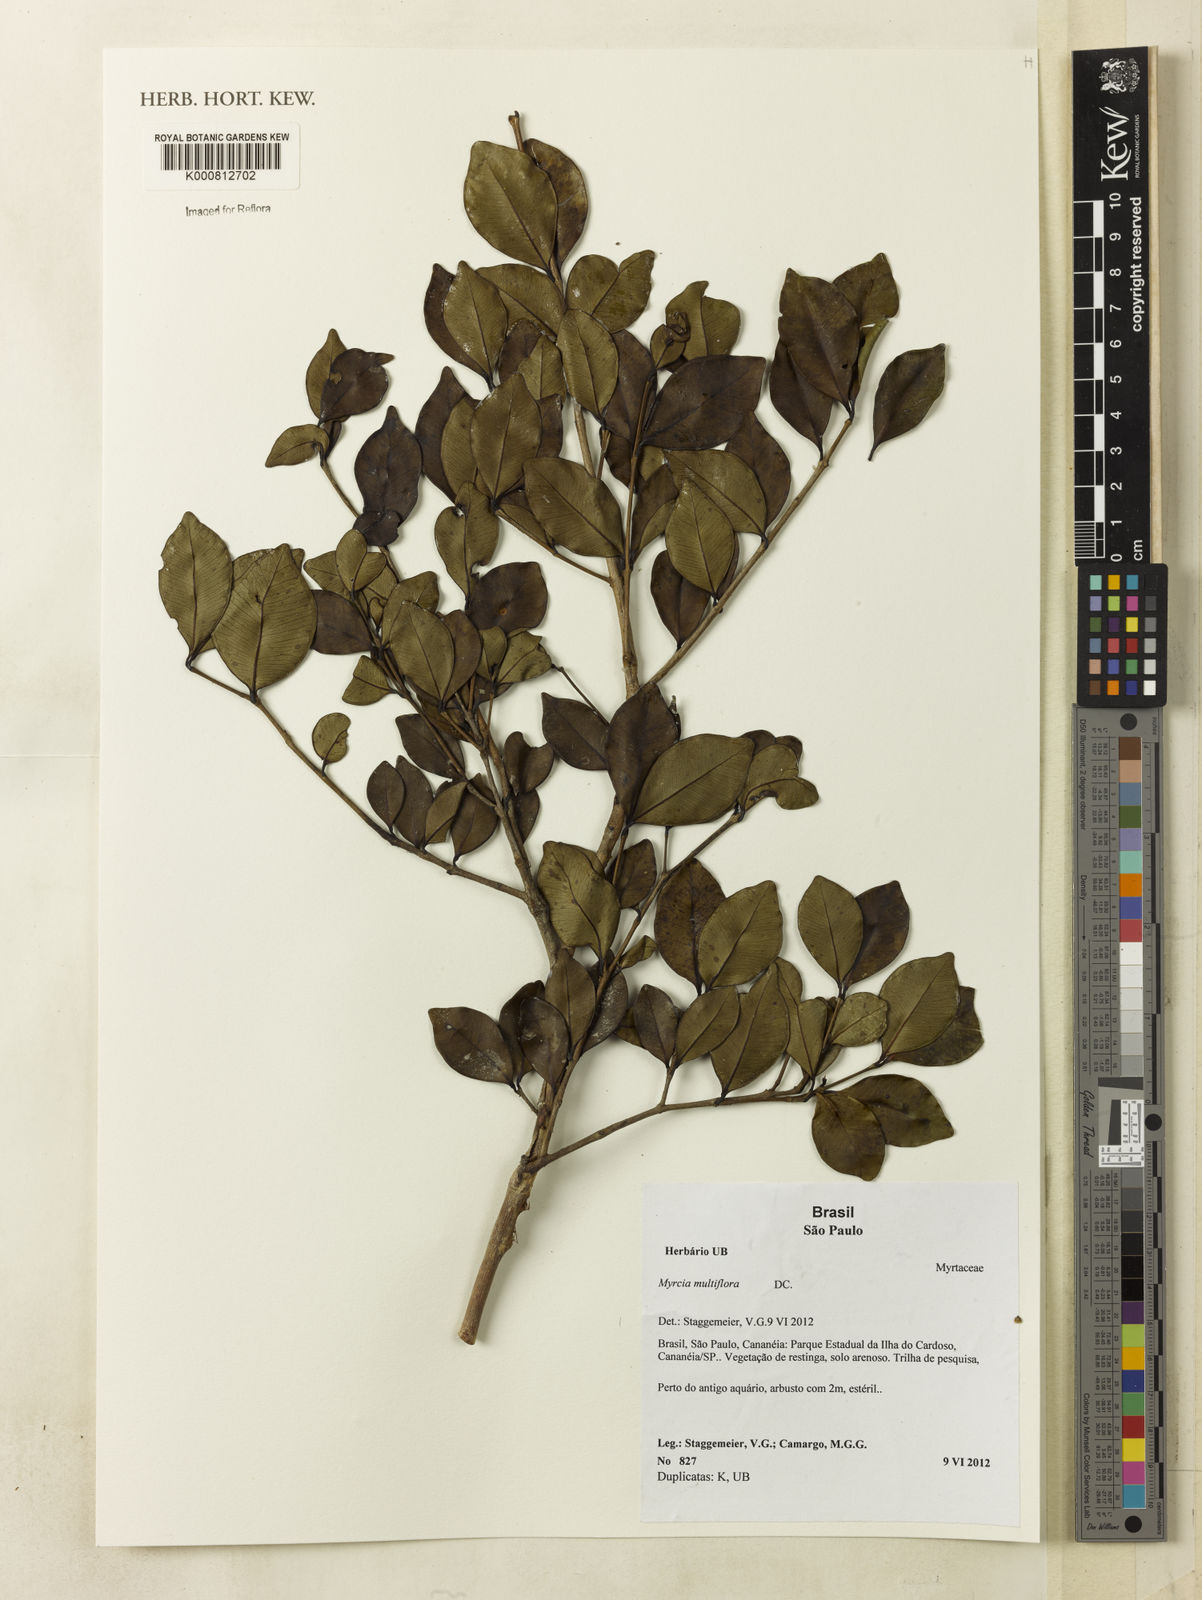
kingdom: Plantae
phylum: Tracheophyta
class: Magnoliopsida
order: Myrtales
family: Myrtaceae
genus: Myrcia
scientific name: Myrcia multiflora
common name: Pedra hume
